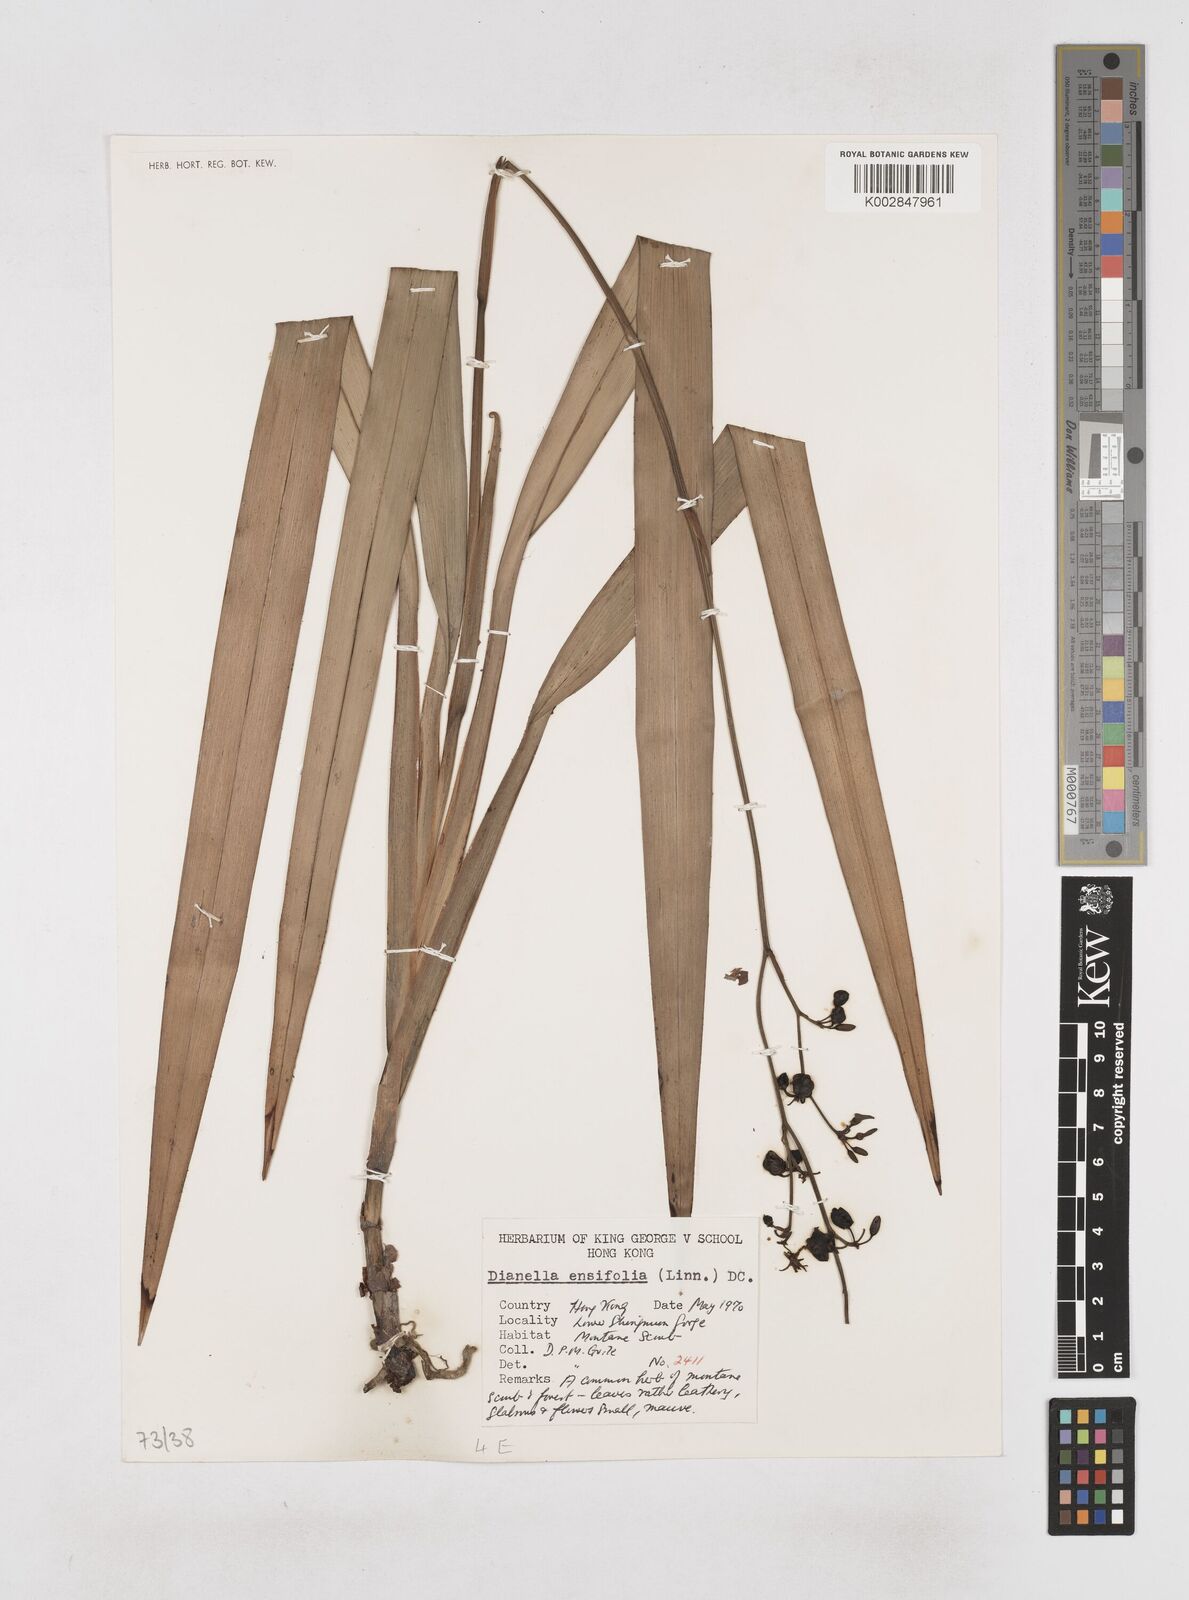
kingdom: Plantae
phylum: Tracheophyta
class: Liliopsida
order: Asparagales
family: Asphodelaceae
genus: Dianella
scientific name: Dianella ensifolia
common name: New zealand lilyplant
